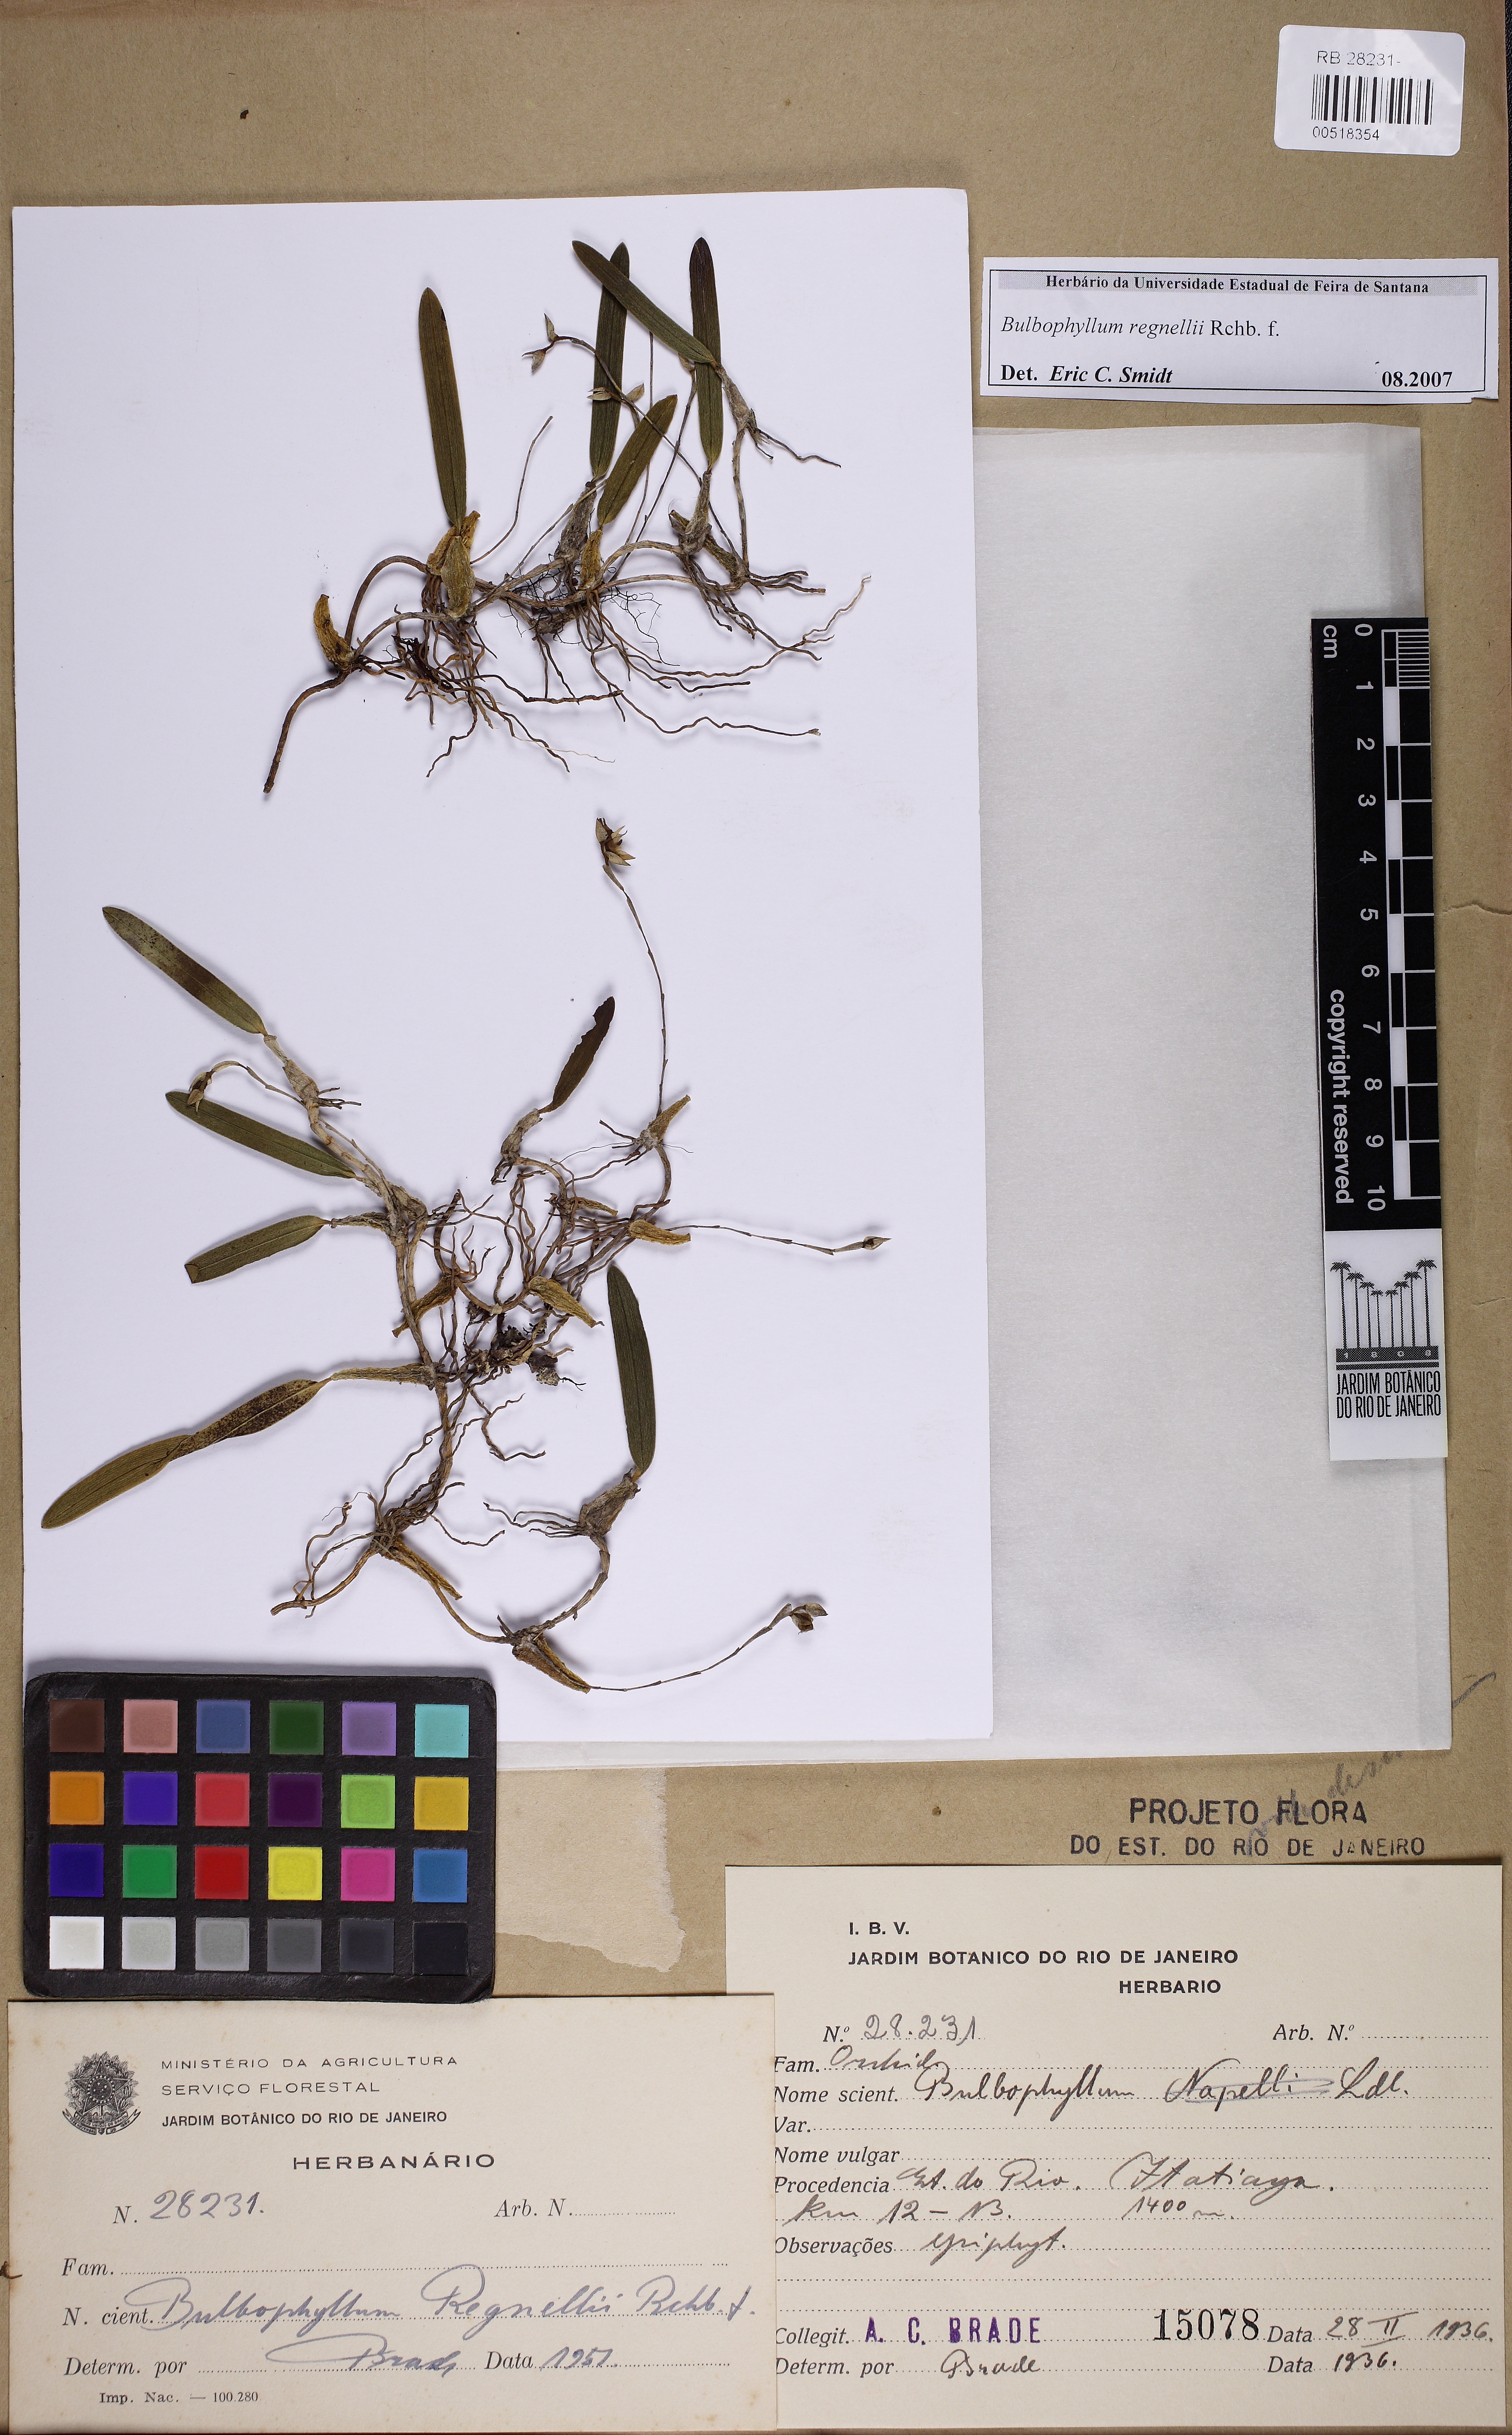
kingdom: Plantae
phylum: Tracheophyta
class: Liliopsida
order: Asparagales
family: Orchidaceae
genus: Bulbophyllum
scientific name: Bulbophyllum regnellii
